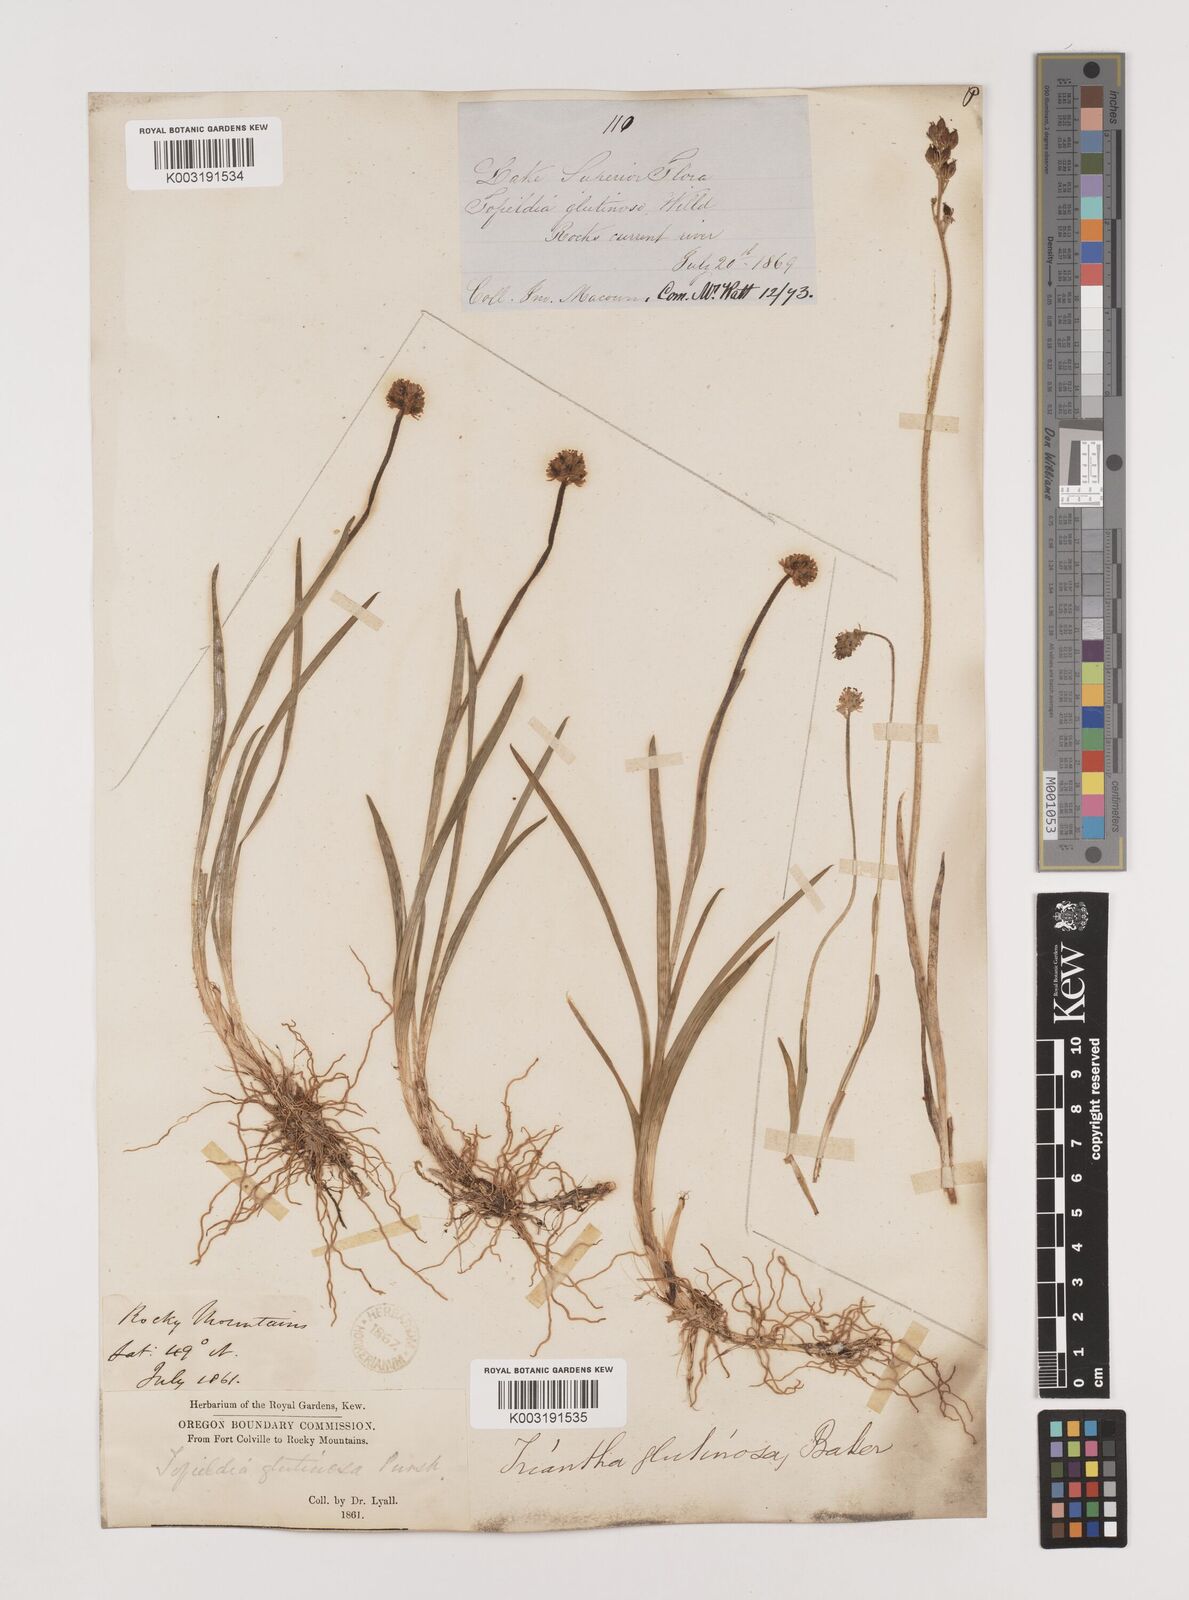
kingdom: Plantae
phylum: Tracheophyta
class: Liliopsida
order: Alismatales
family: Tofieldiaceae
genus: Triantha
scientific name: Triantha occidentalis
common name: Western false asphodel
